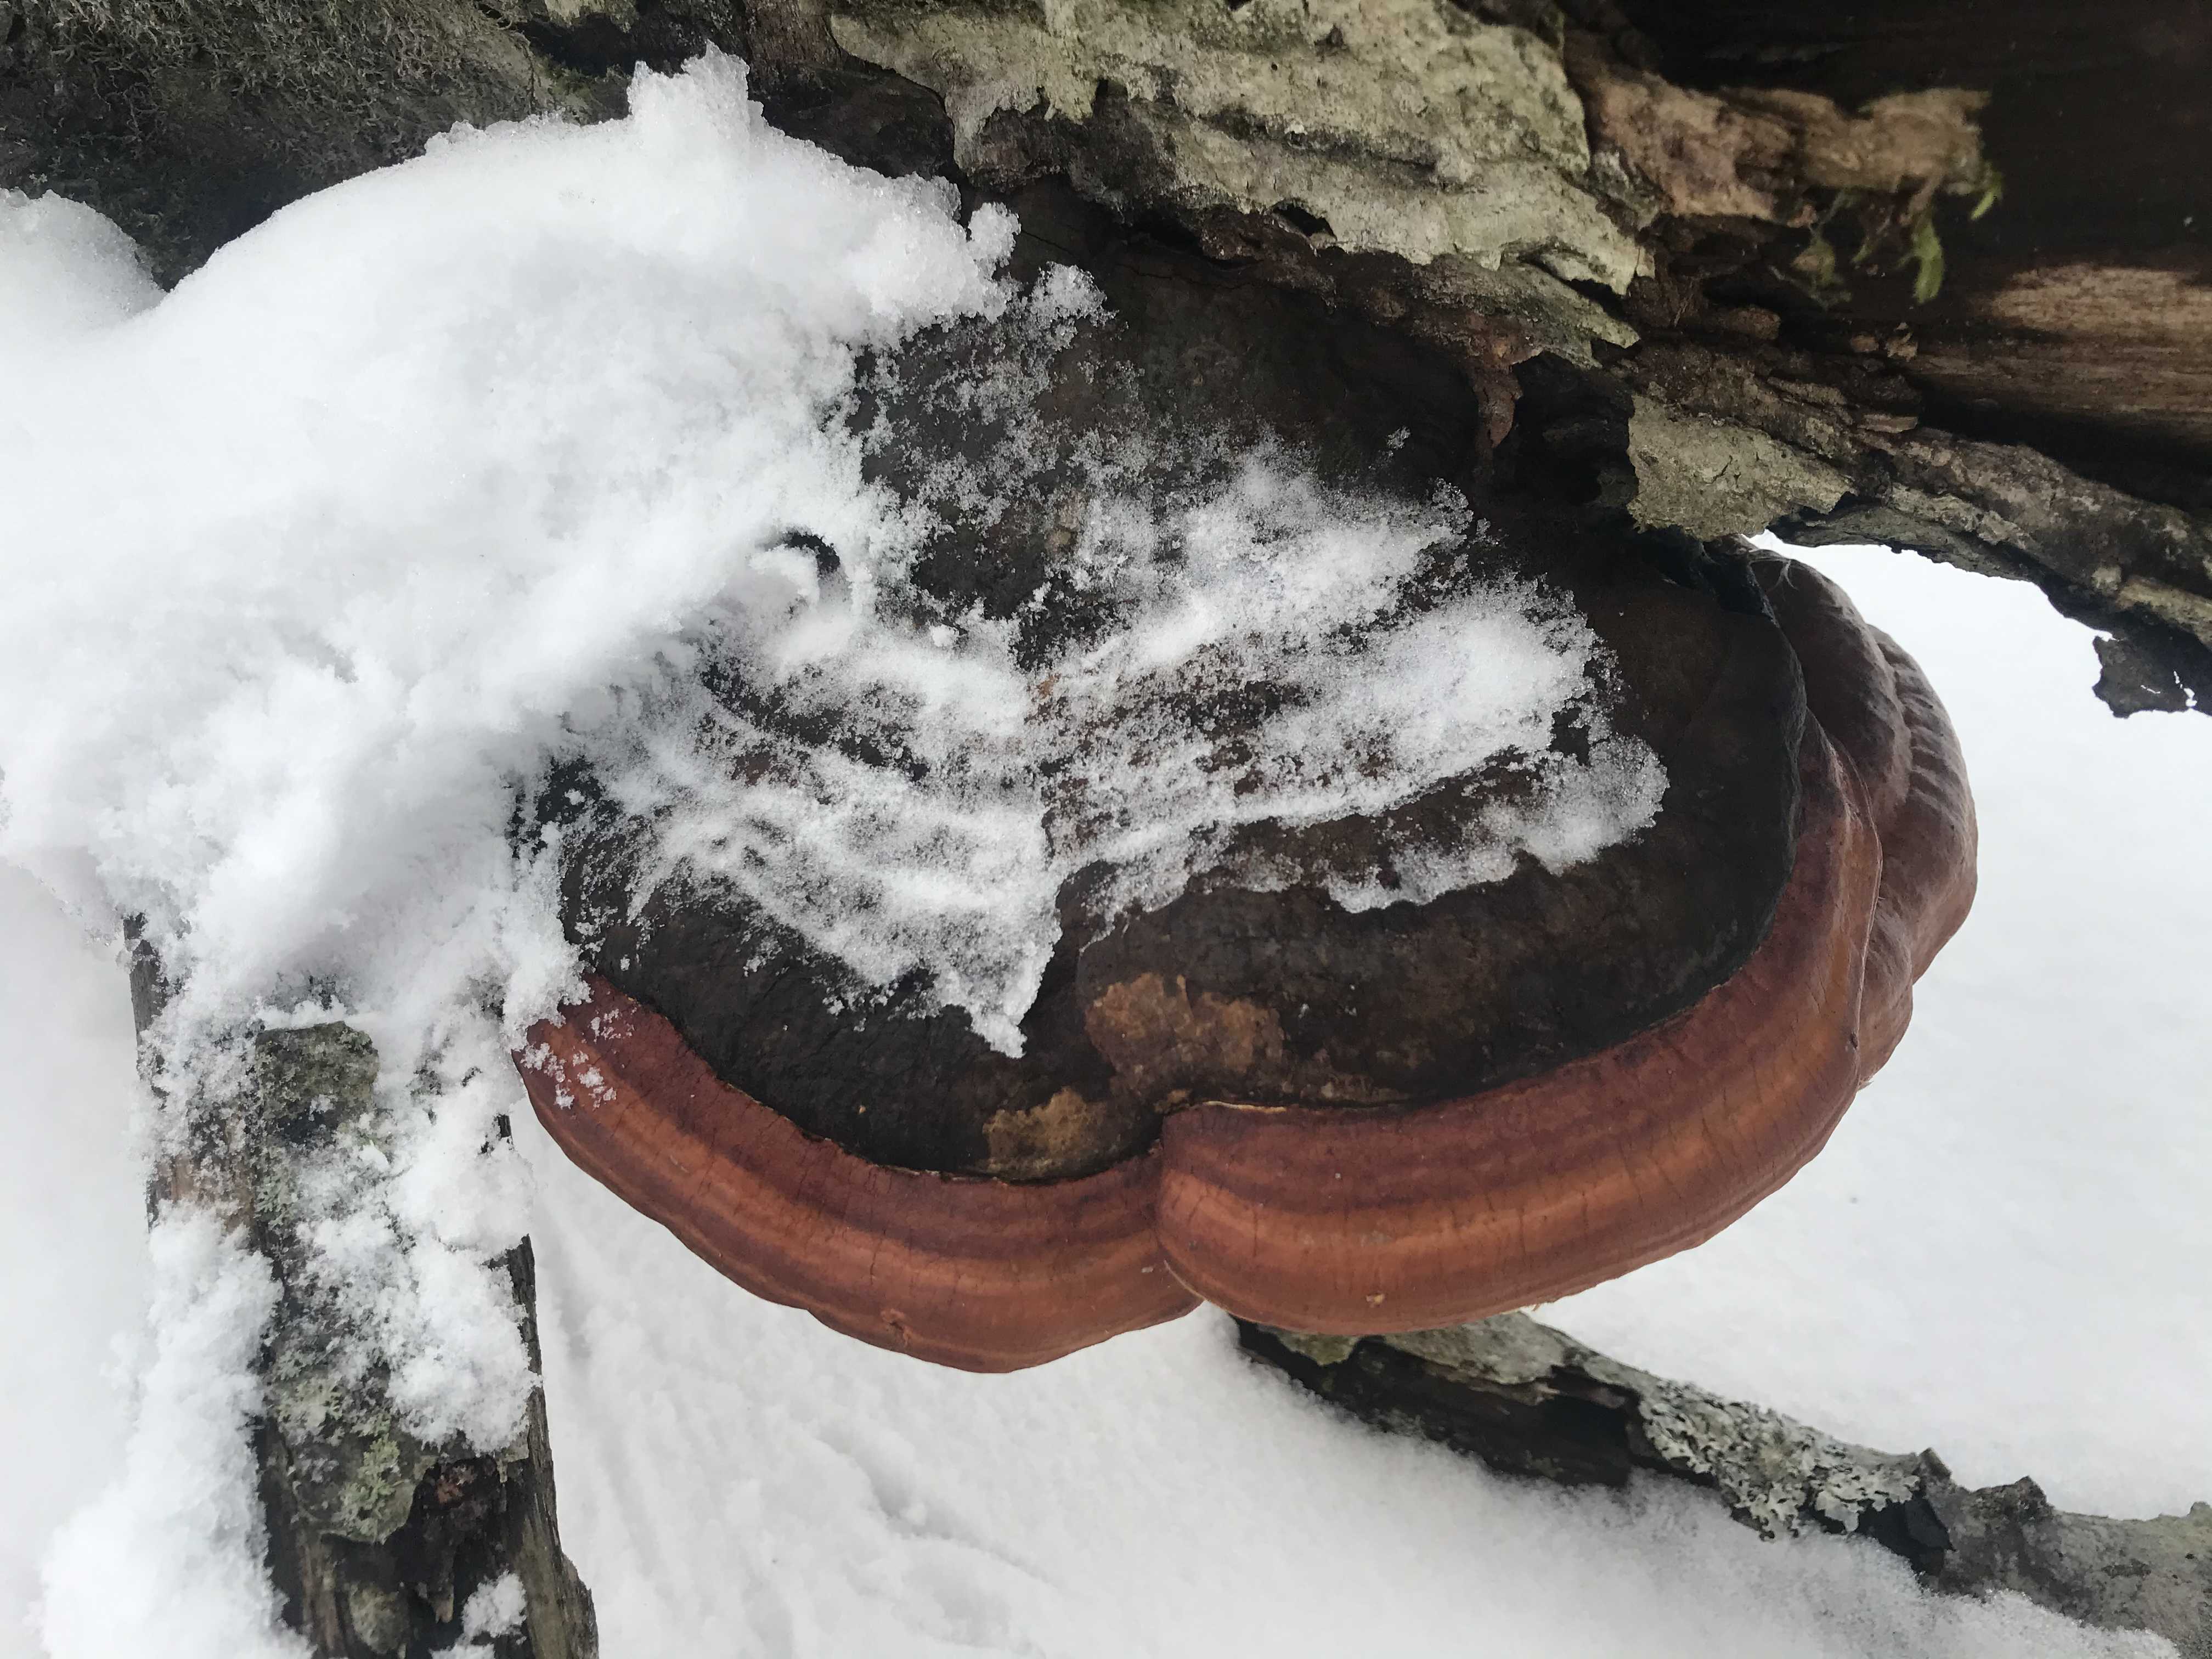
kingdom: Fungi
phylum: Basidiomycota
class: Agaricomycetes
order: Polyporales
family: Fomitopsidaceae
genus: Fomitopsis
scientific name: Fomitopsis pinicola
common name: randbæltet hovporesvamp
